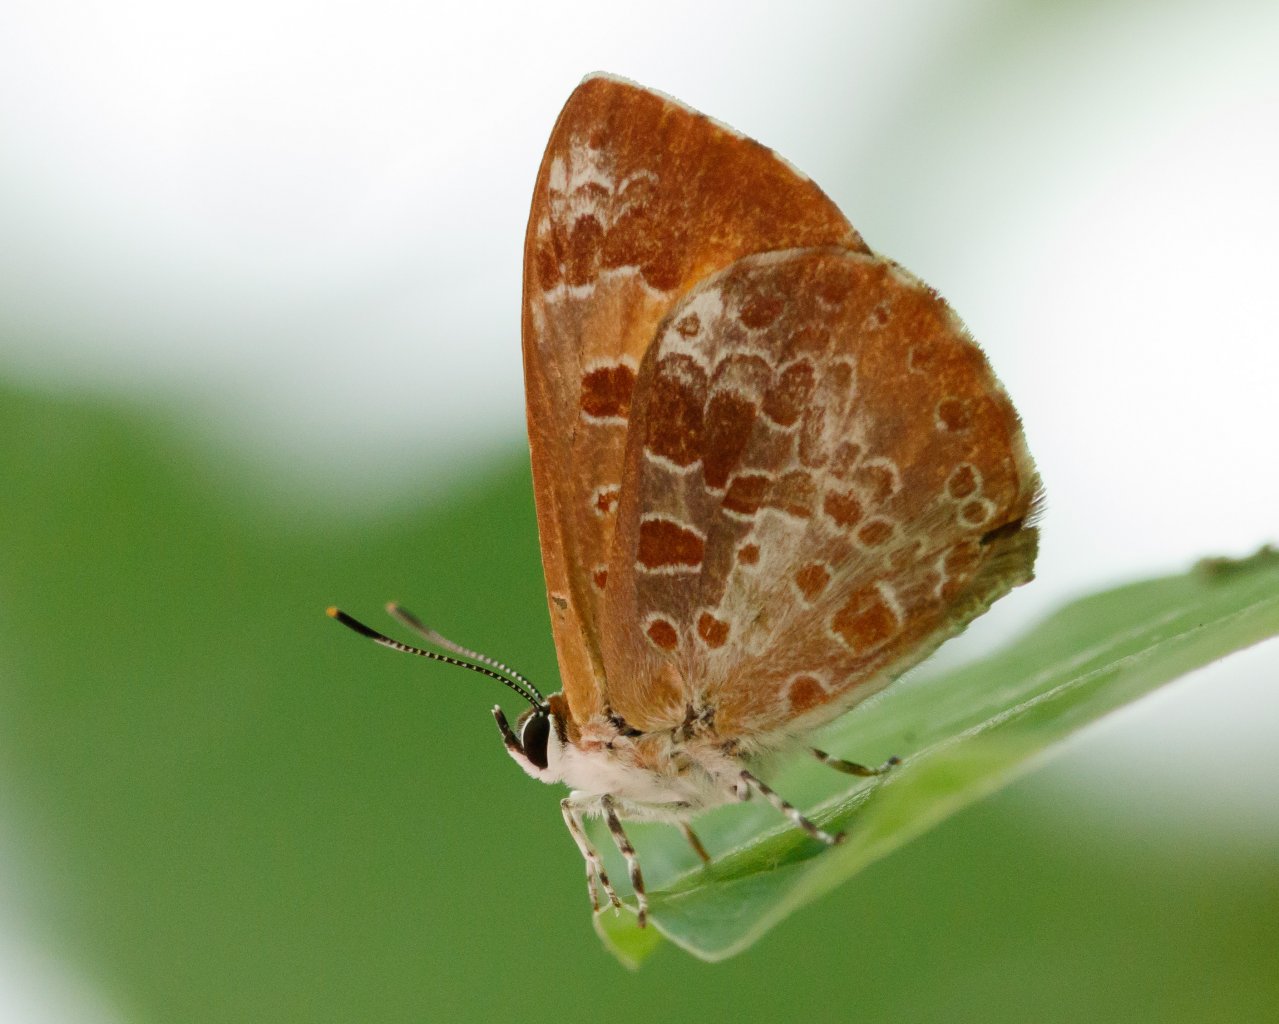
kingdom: Animalia
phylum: Arthropoda
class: Insecta
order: Lepidoptera
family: Lycaenidae
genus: Feniseca
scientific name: Feniseca tarquinius
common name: Harvester
